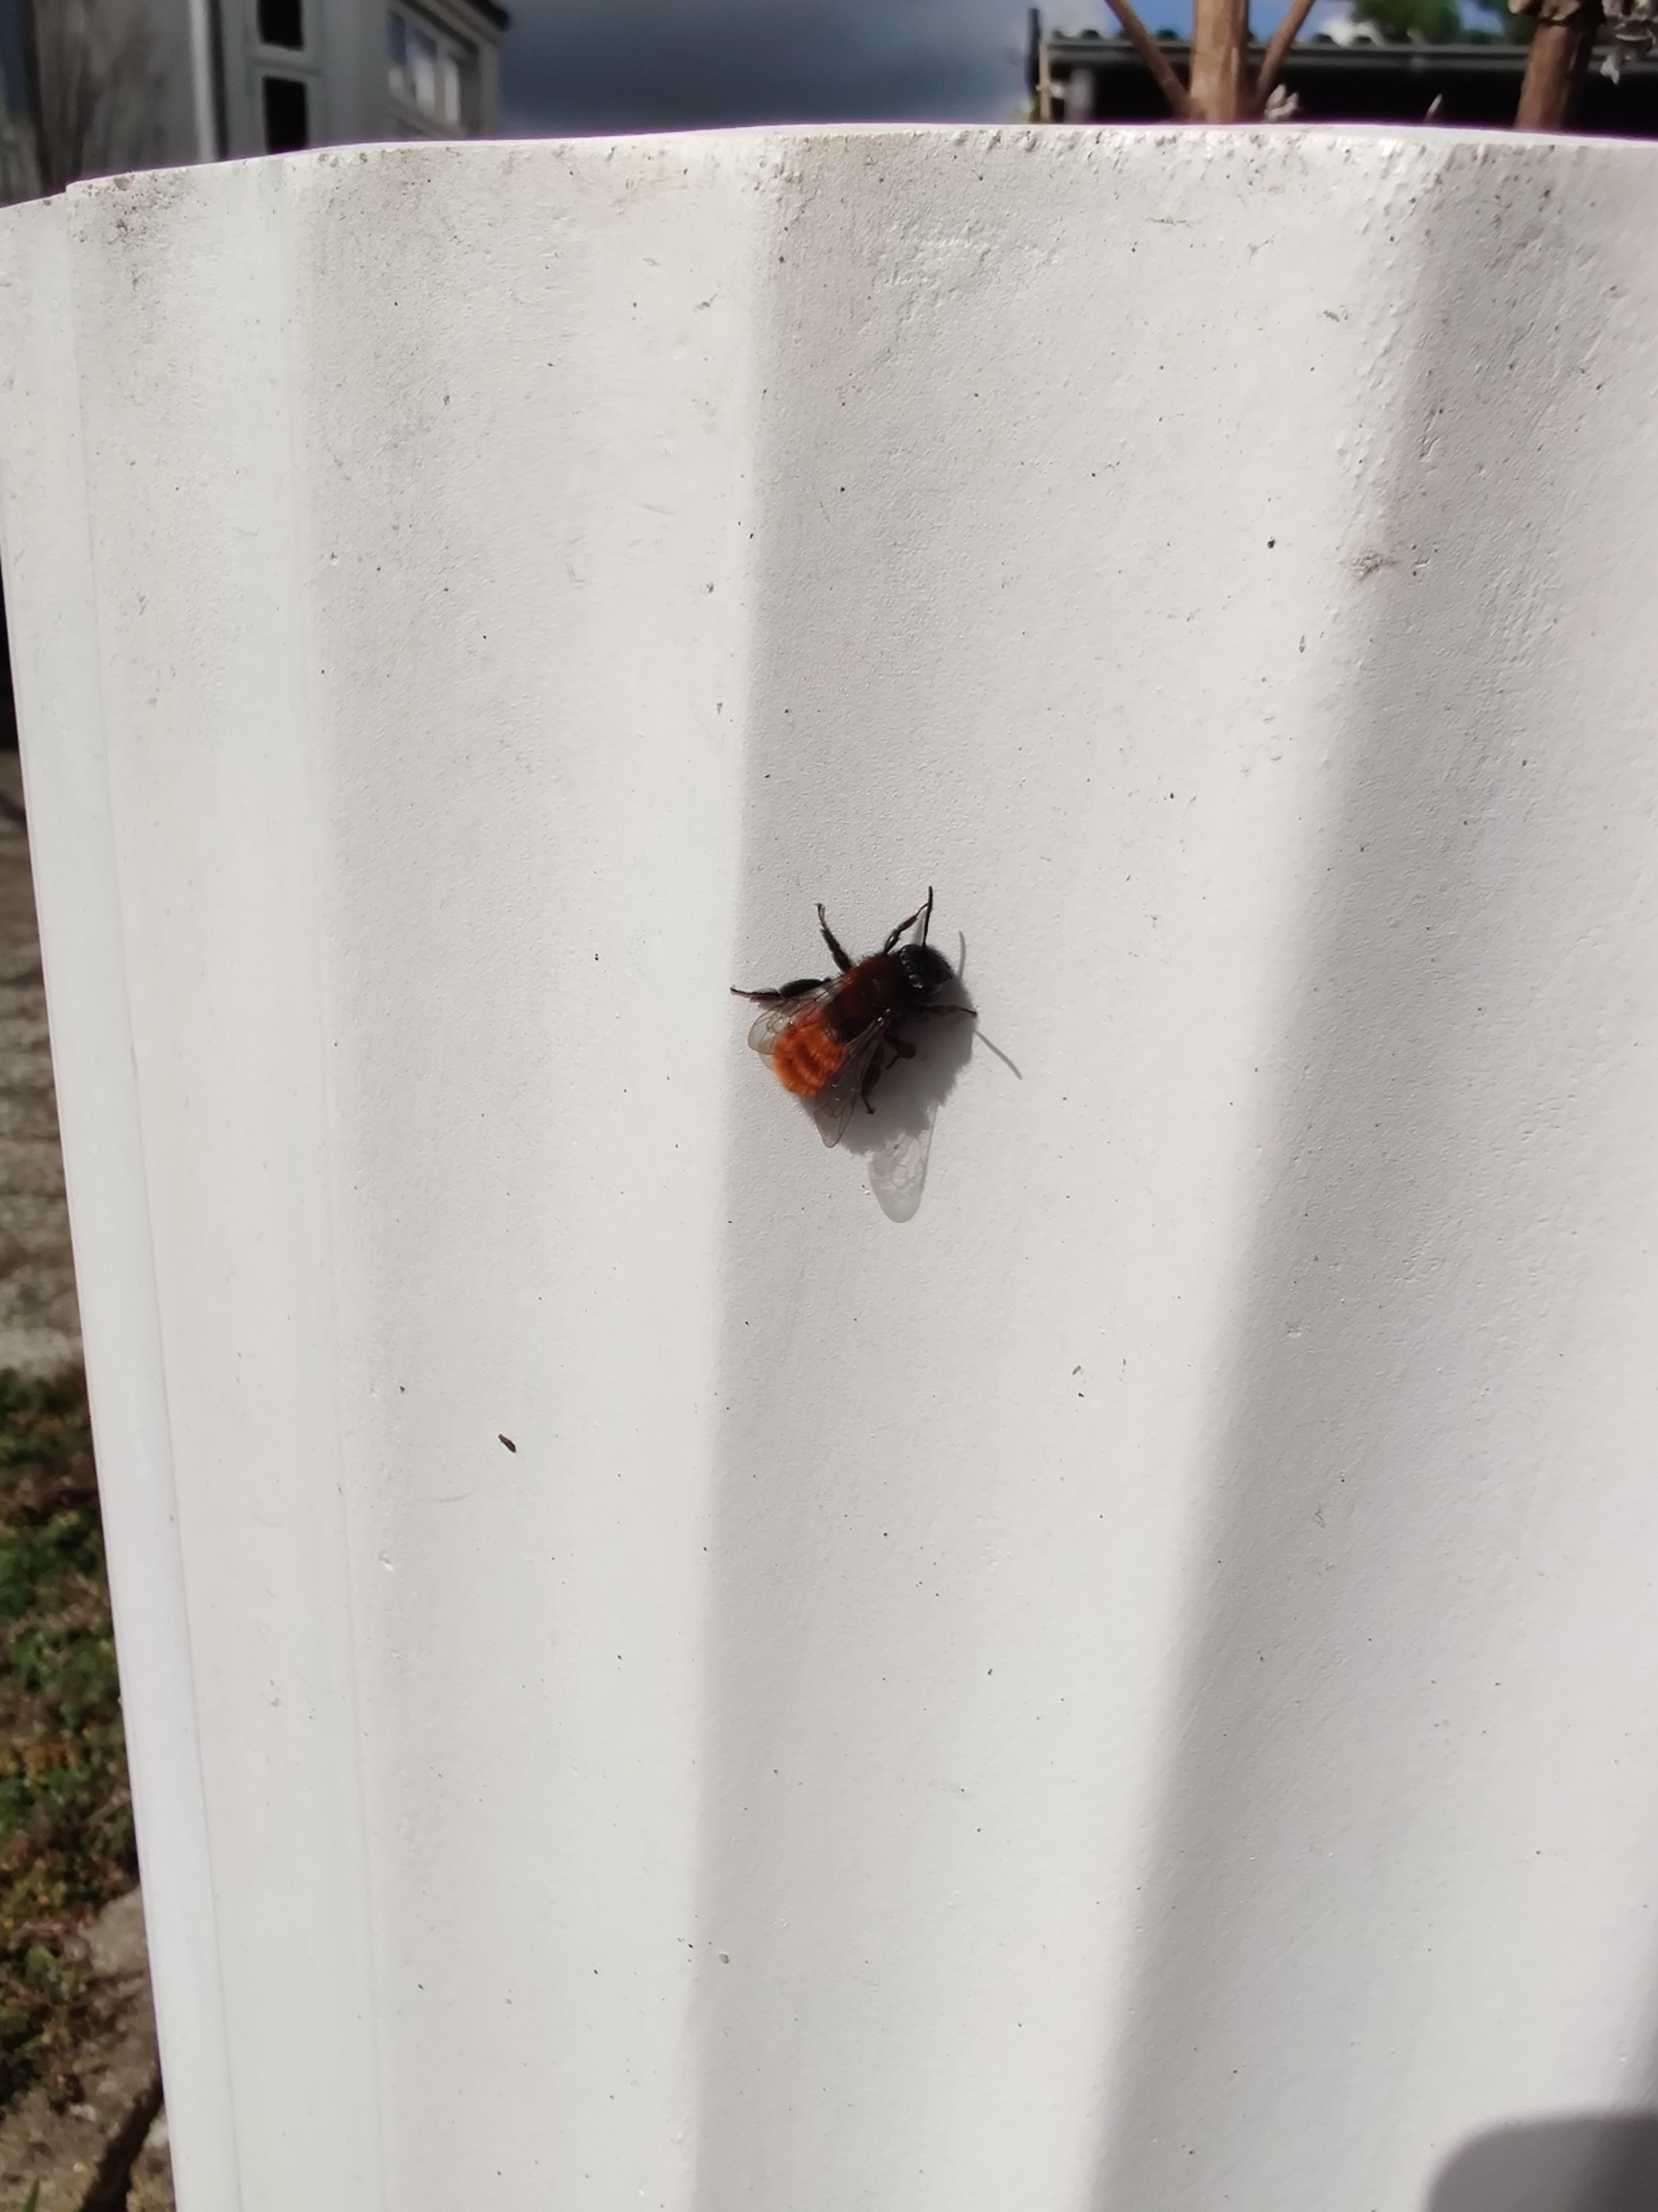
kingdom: Animalia
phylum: Arthropoda
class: Insecta
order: Hymenoptera
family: Andrenidae
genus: Andrena
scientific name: Andrena fulva
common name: Rødpelset jordbi
